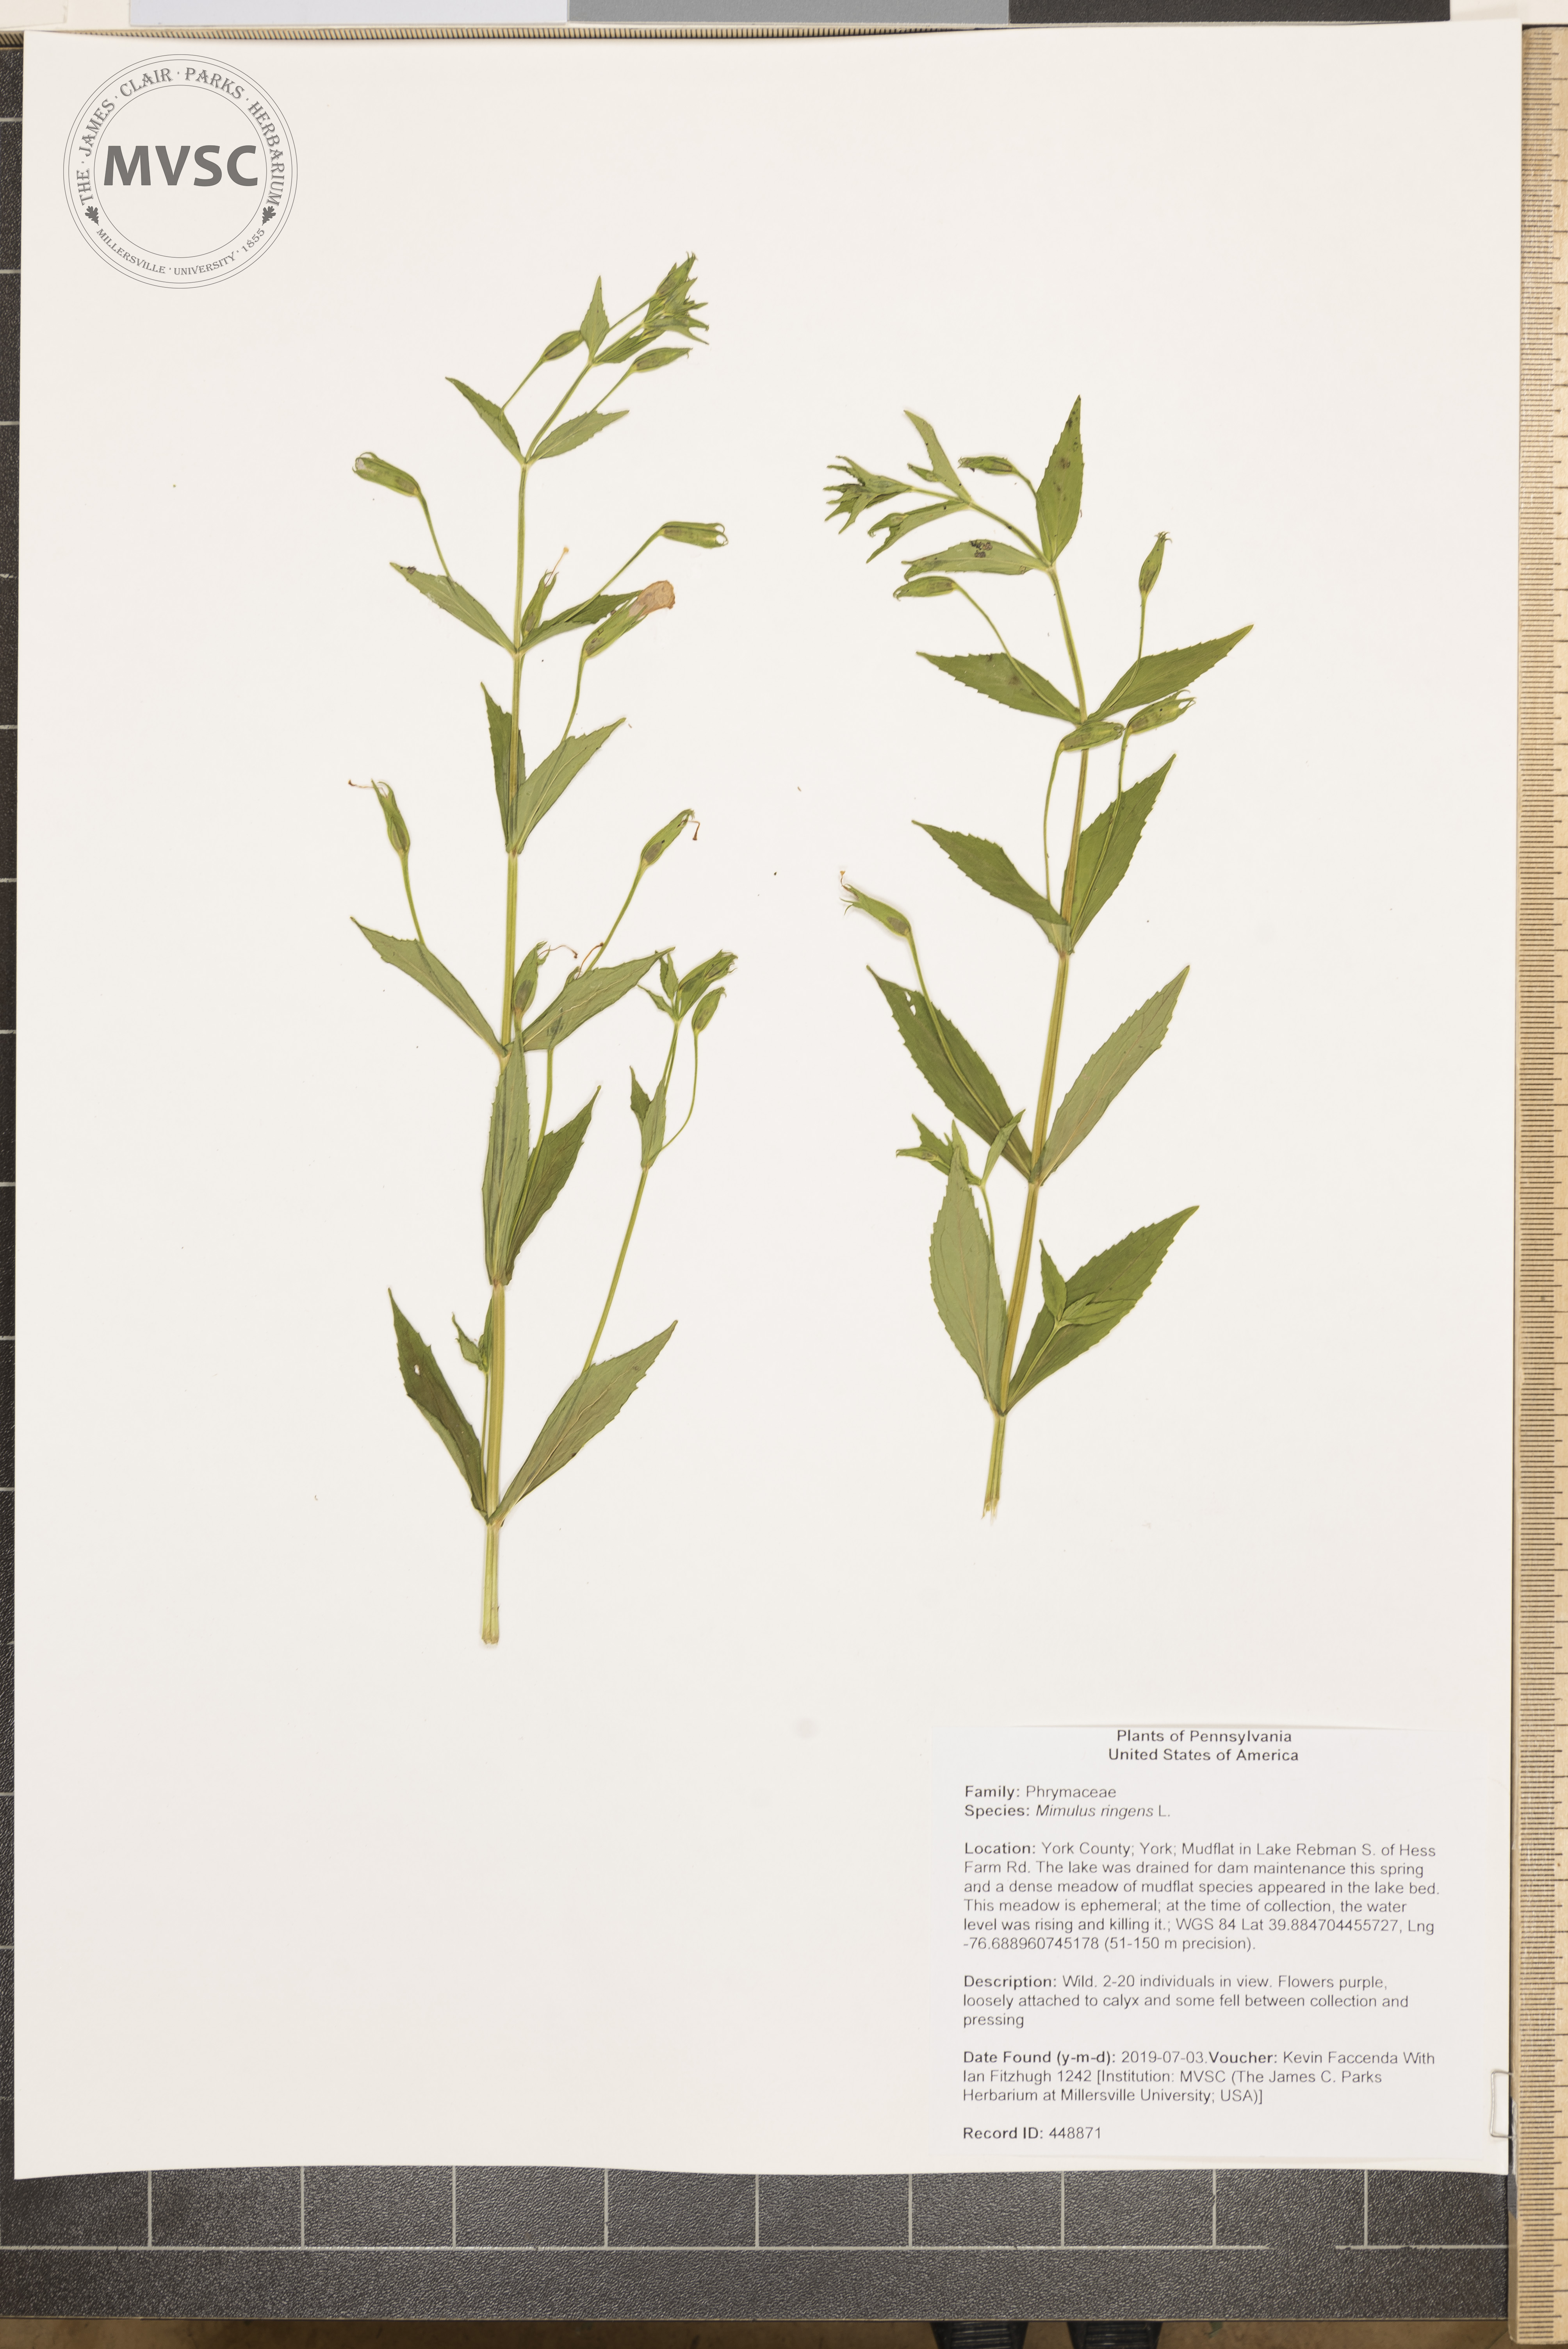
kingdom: Plantae
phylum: Tracheophyta
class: Magnoliopsida
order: Lamiales
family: Phrymaceae
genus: Mimulus
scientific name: Mimulus ringens
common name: Allegheny monkeyflower
